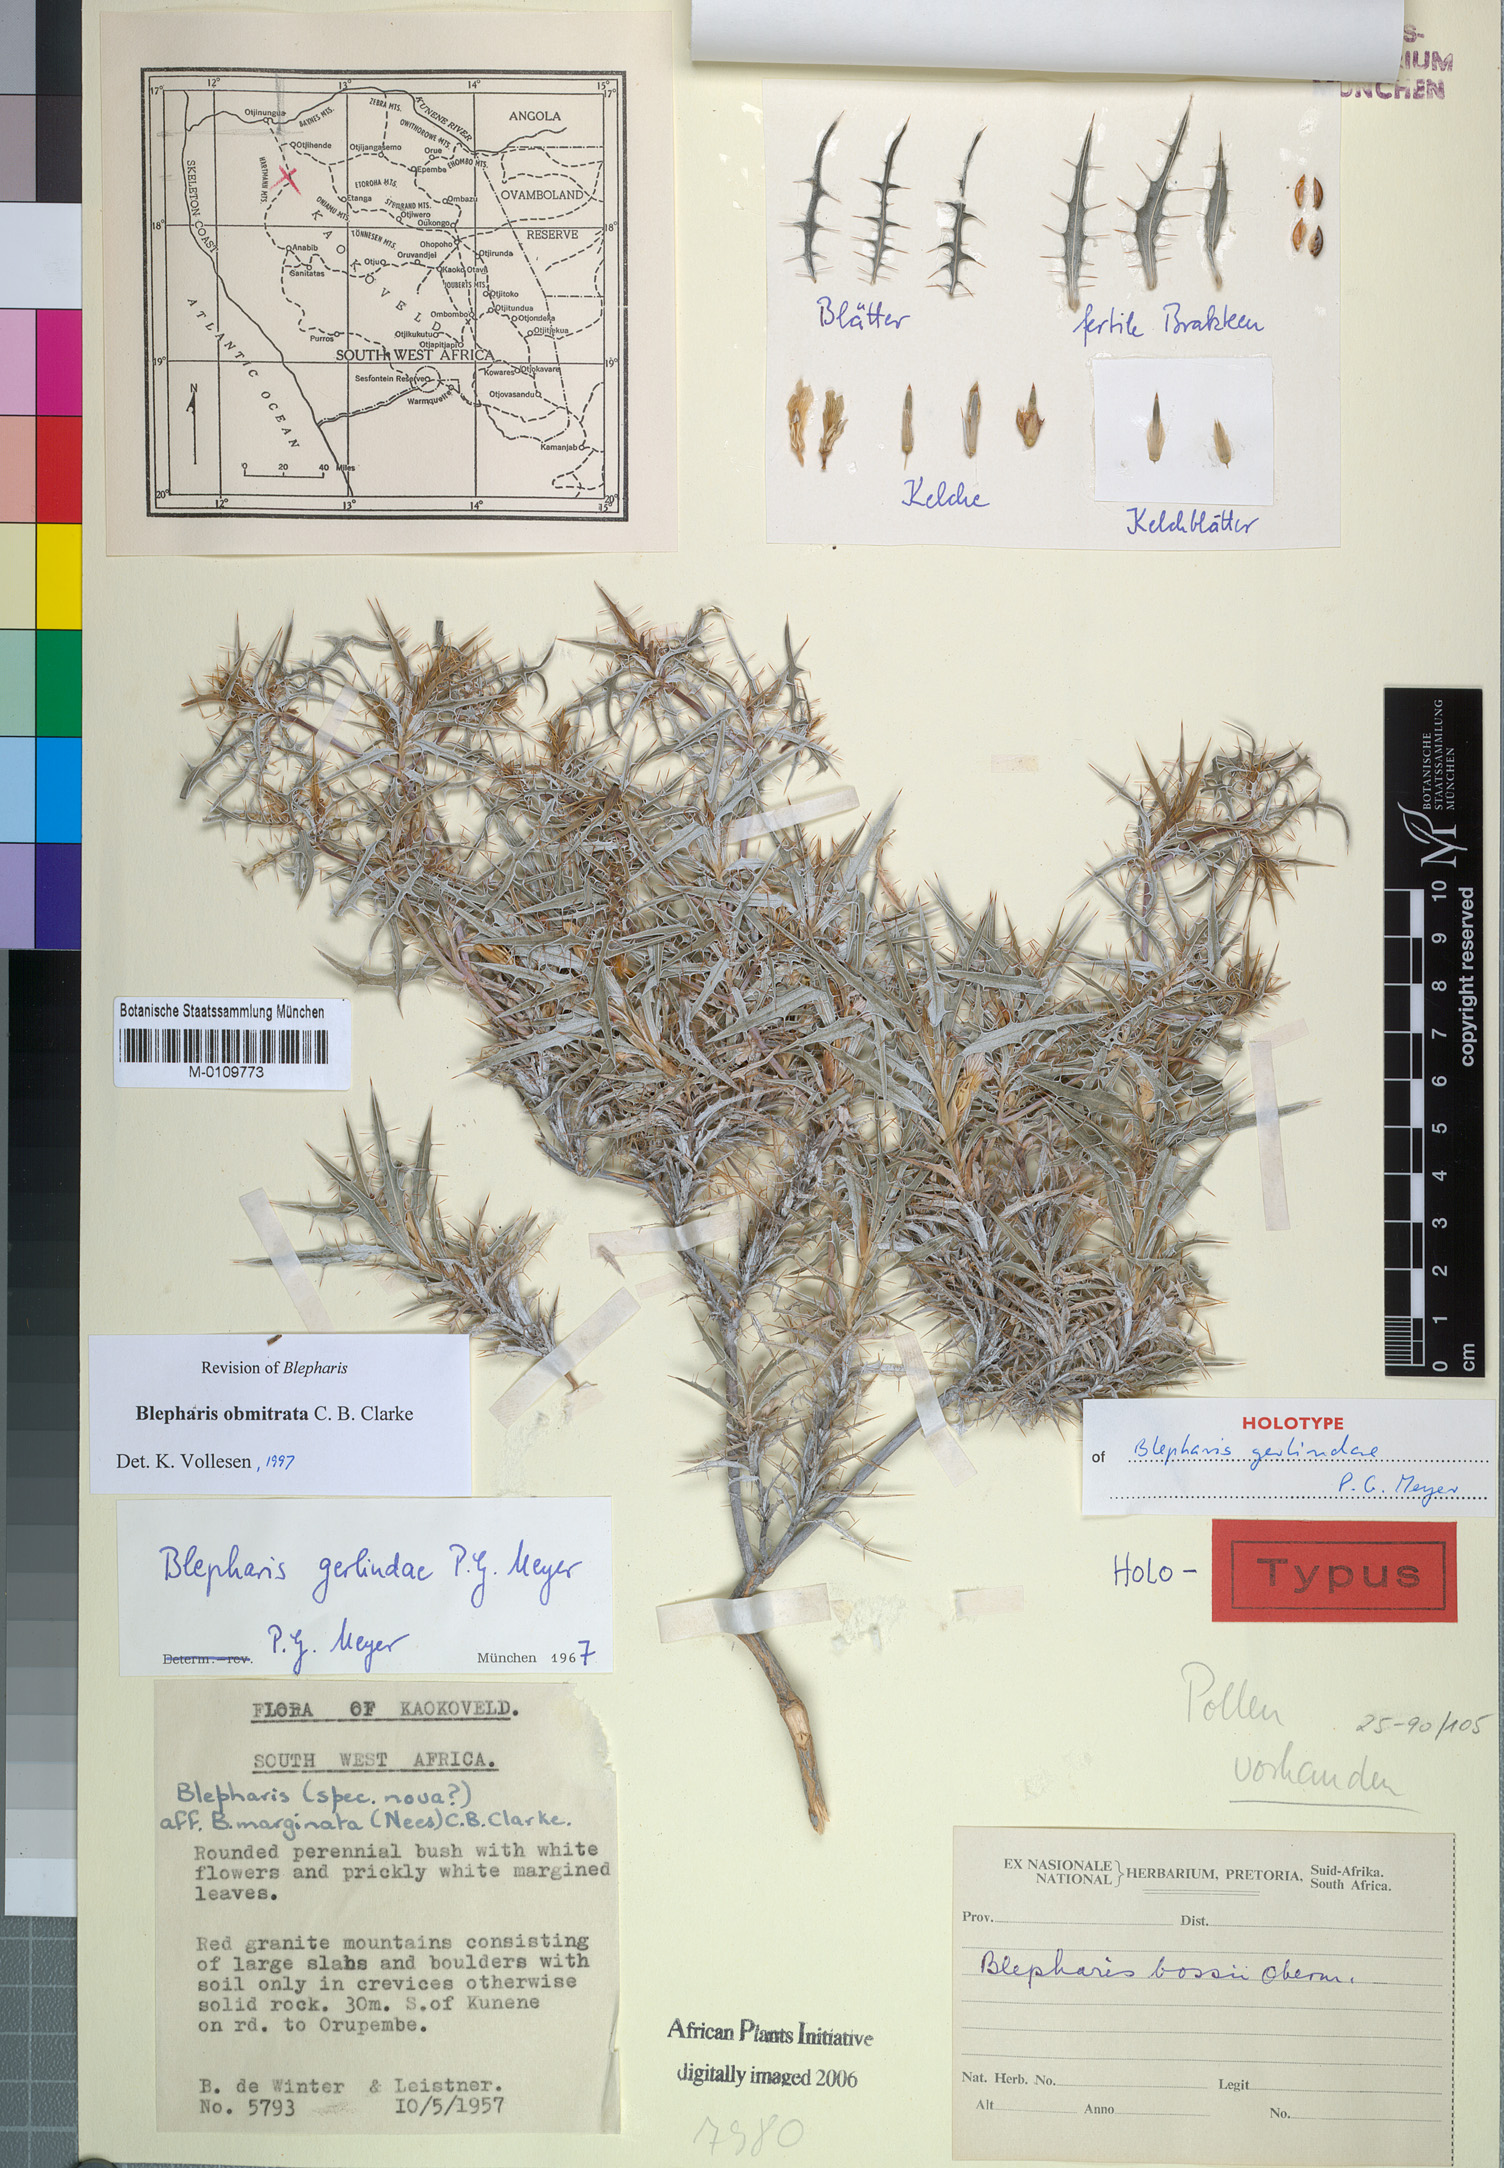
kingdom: Plantae
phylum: Tracheophyta
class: Magnoliopsida
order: Lamiales
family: Acanthaceae
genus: Blepharis
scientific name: Blepharis obmitrata
